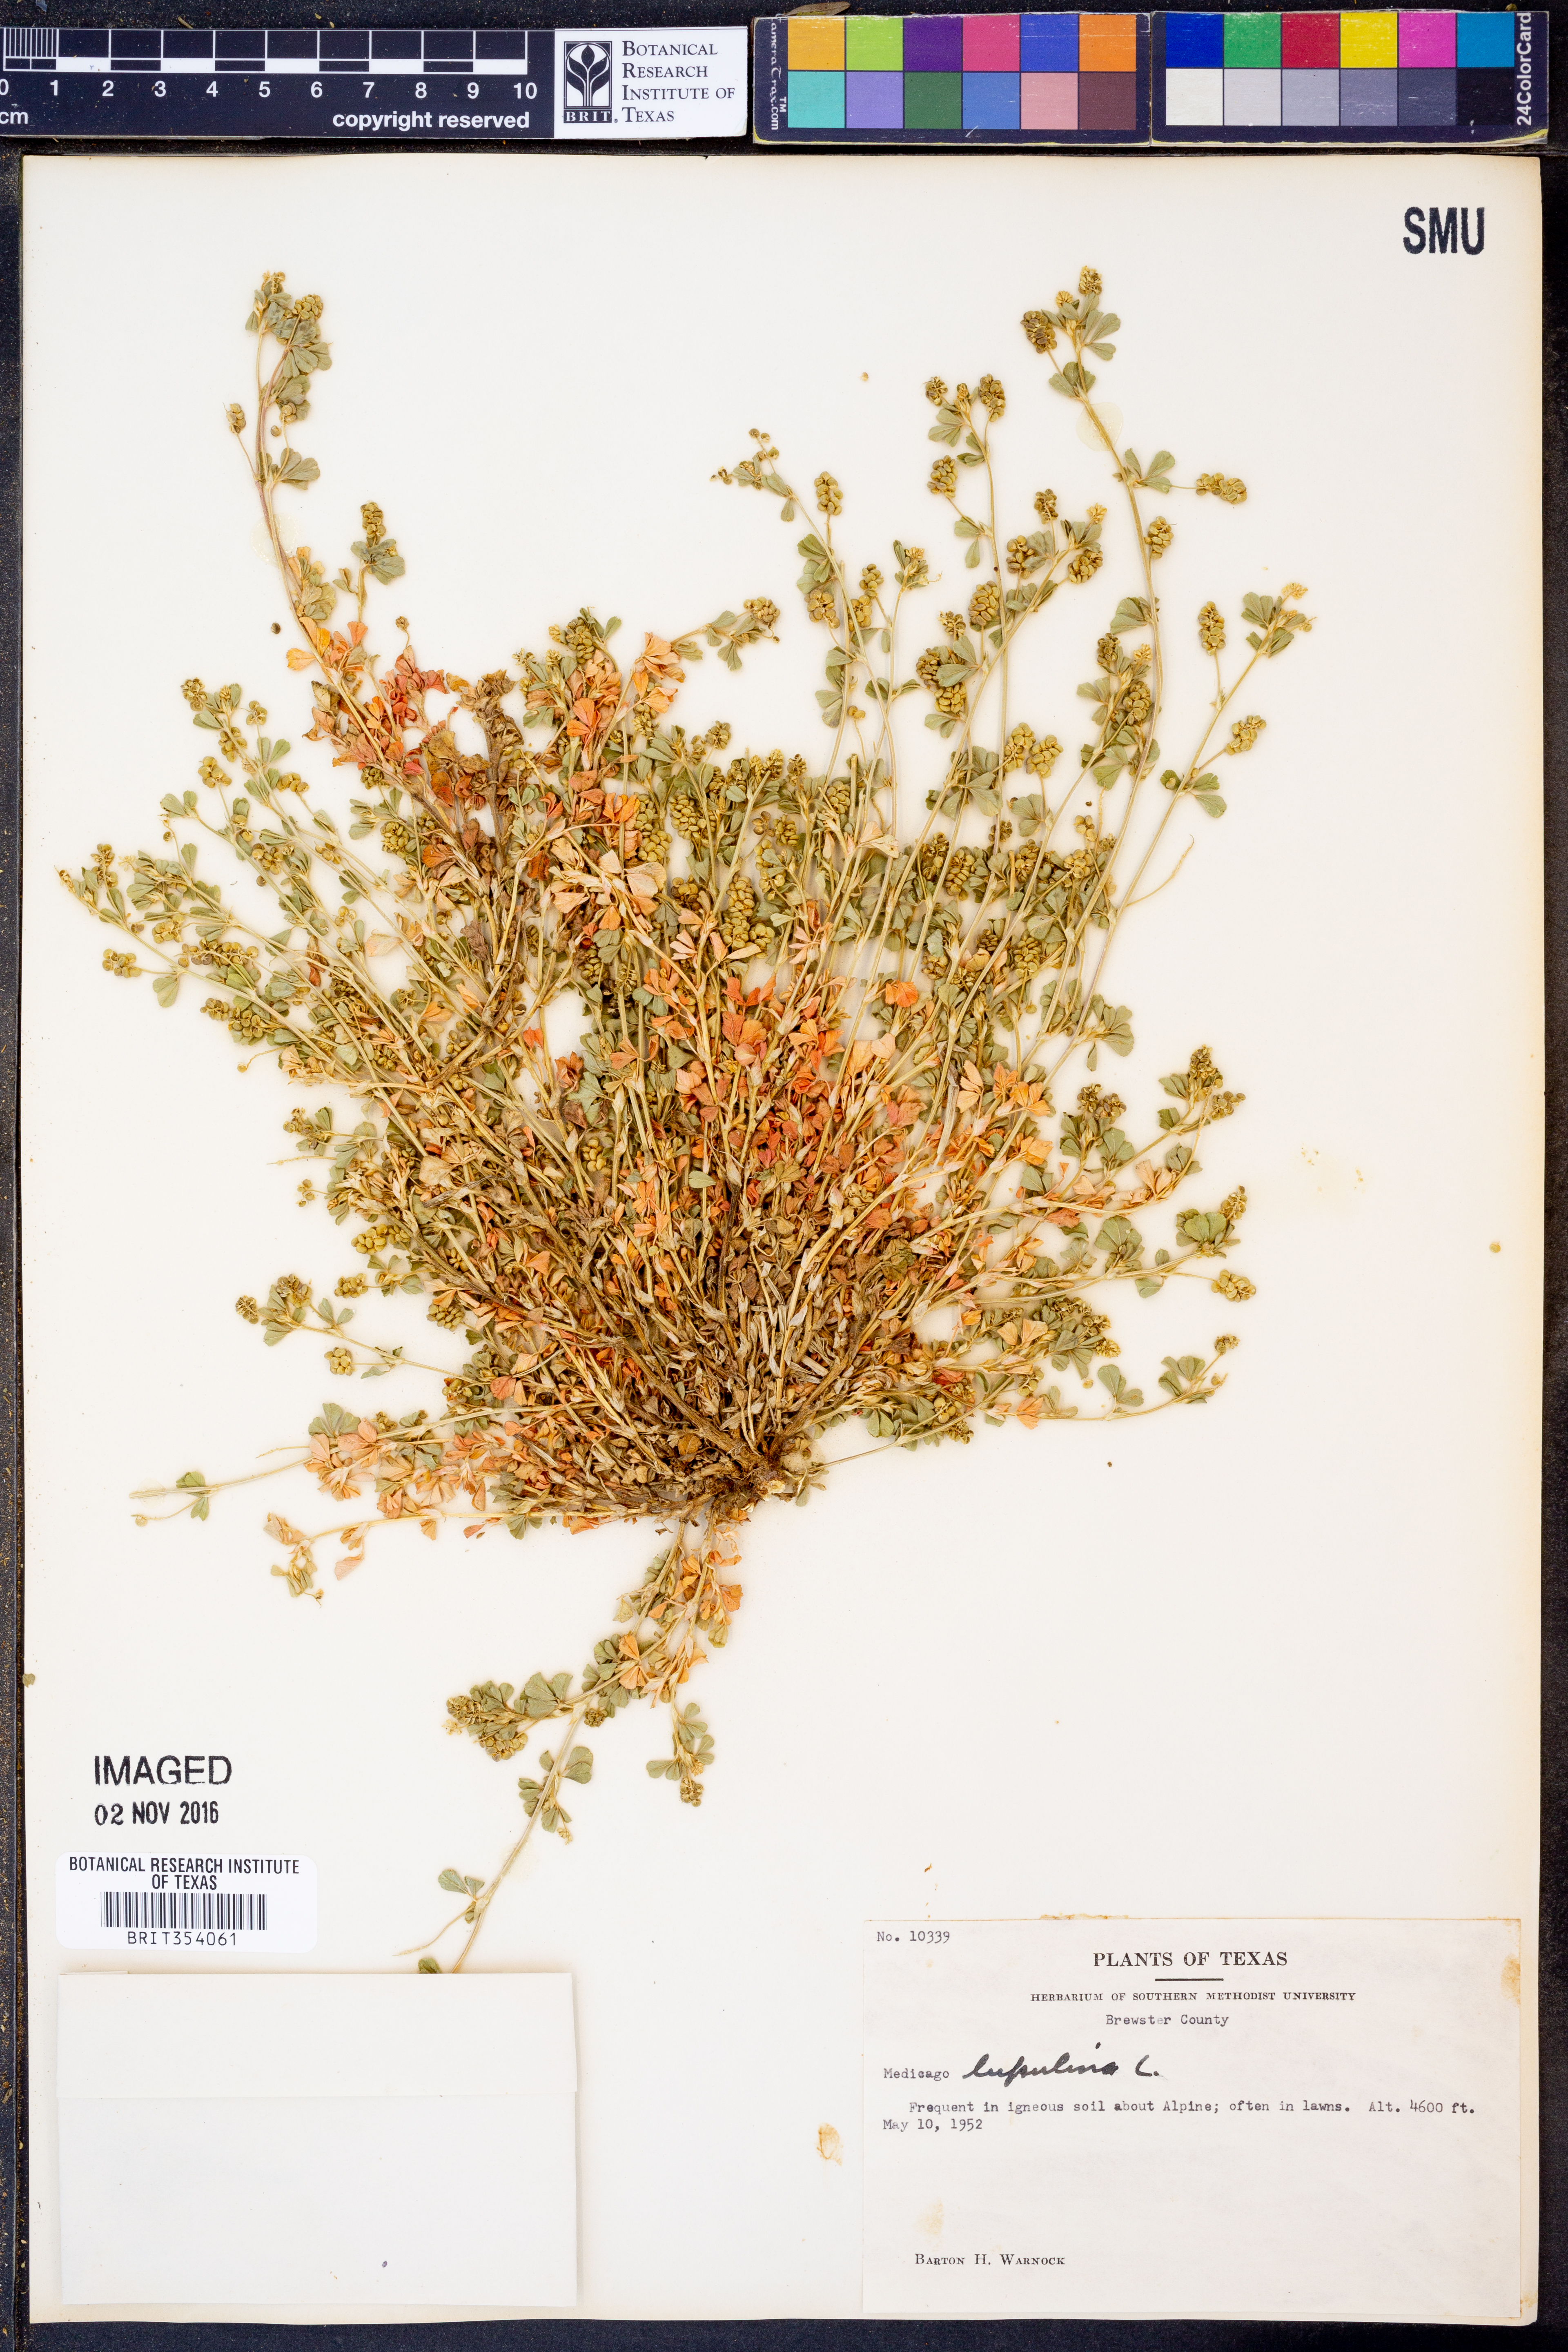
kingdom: Plantae
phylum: Tracheophyta
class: Magnoliopsida
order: Fabales
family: Fabaceae
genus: Medicago
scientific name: Medicago lupulina
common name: Black medick
